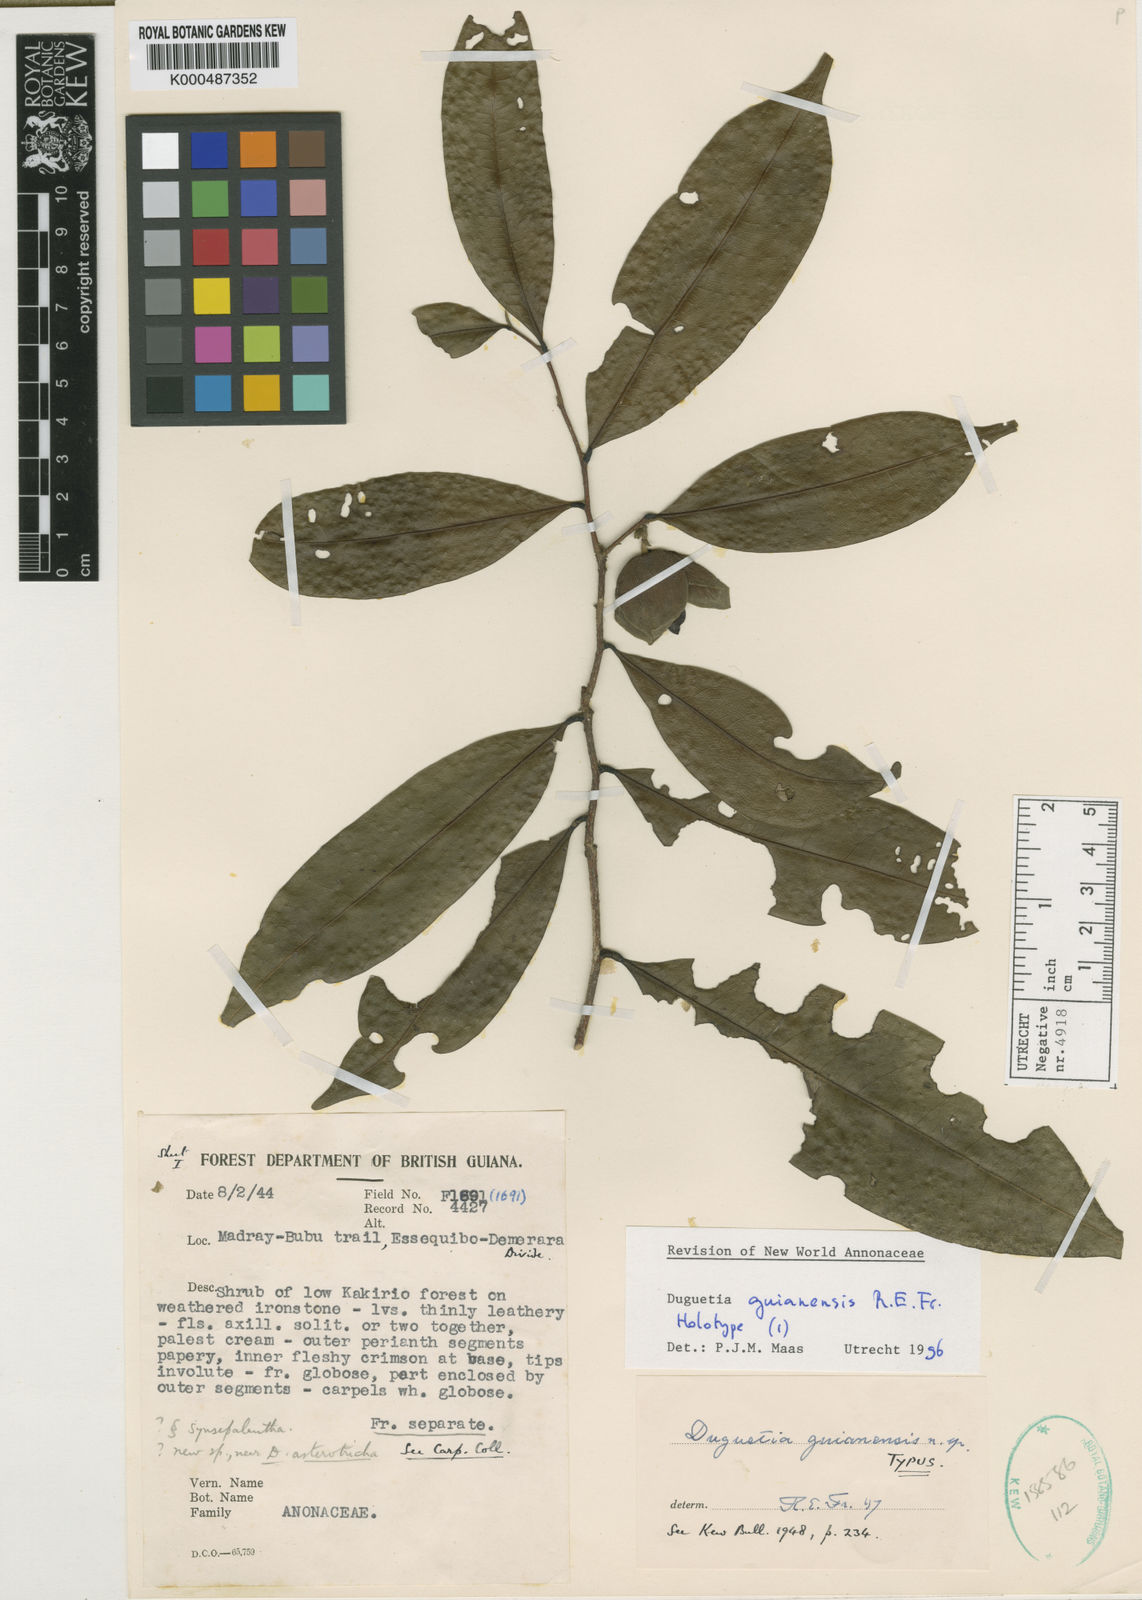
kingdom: Plantae
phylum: Tracheophyta
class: Magnoliopsida
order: Magnoliales
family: Annonaceae
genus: Duguetia
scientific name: Duguetia guianensis
